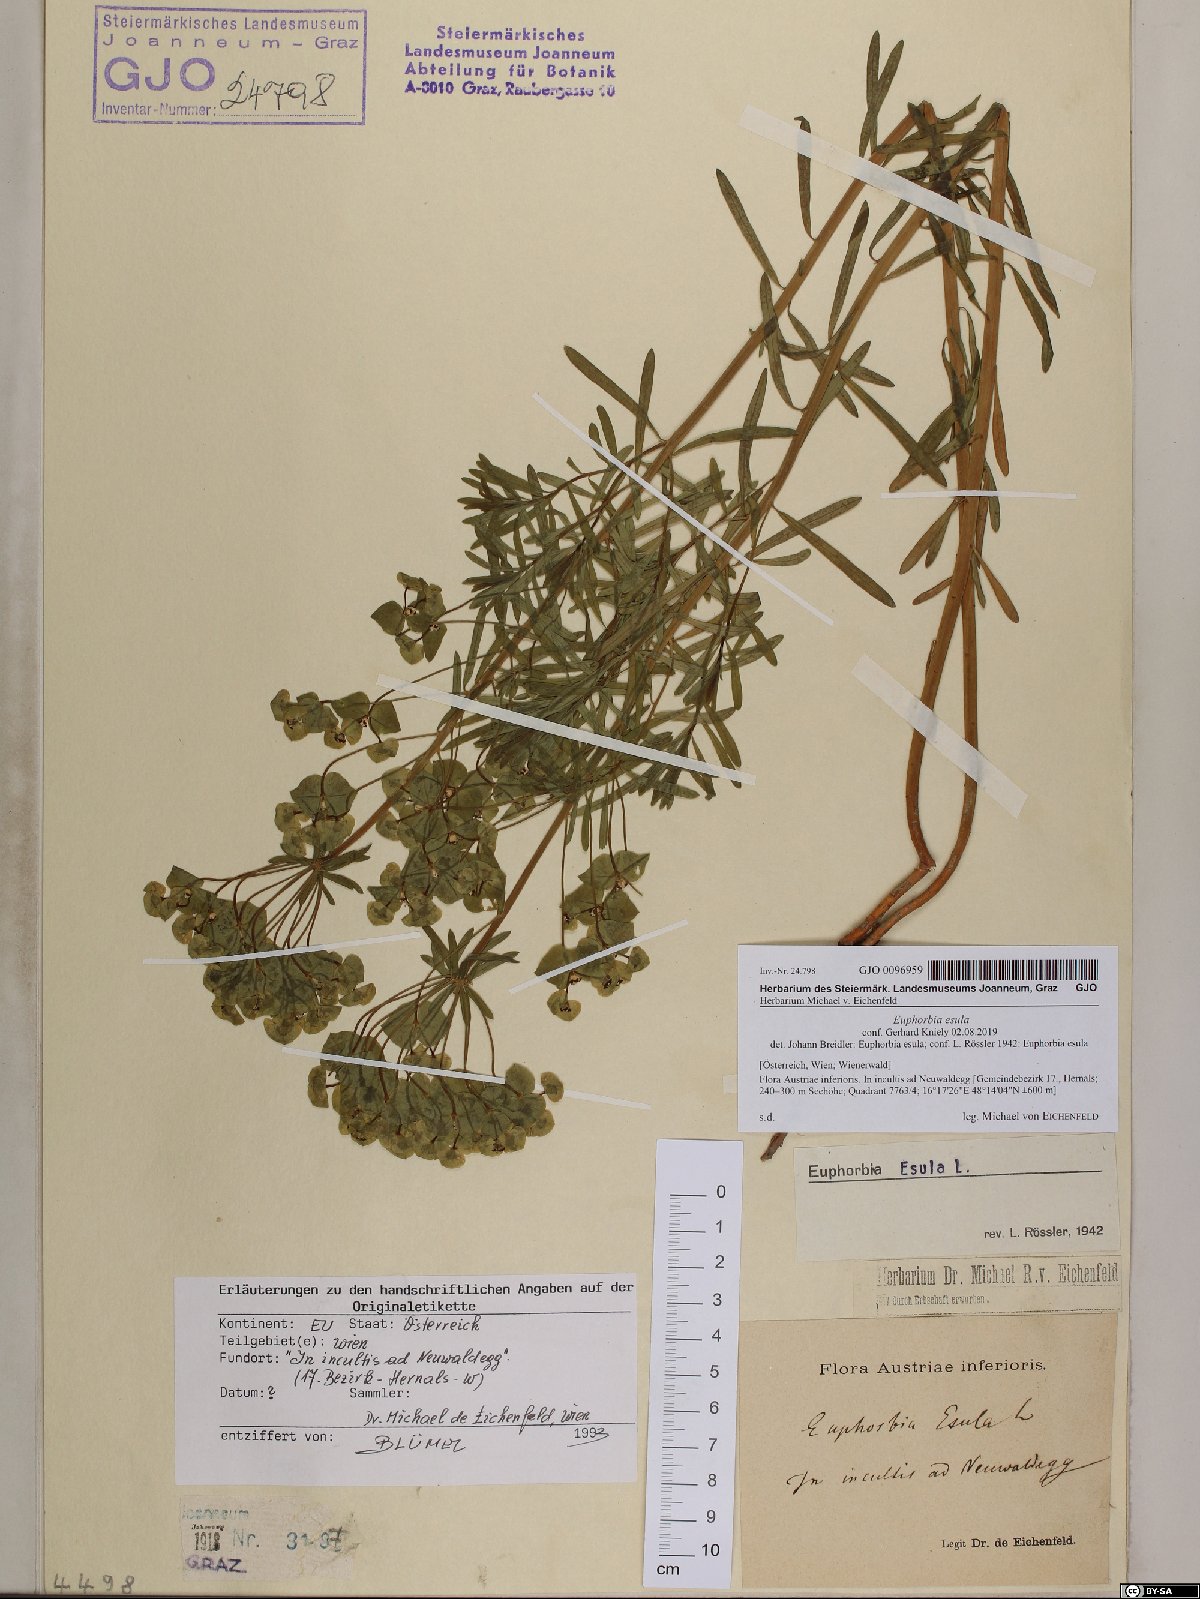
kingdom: Plantae
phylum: Tracheophyta
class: Magnoliopsida
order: Malpighiales
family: Euphorbiaceae
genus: Euphorbia
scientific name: Euphorbia esula
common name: Leafy spurge
